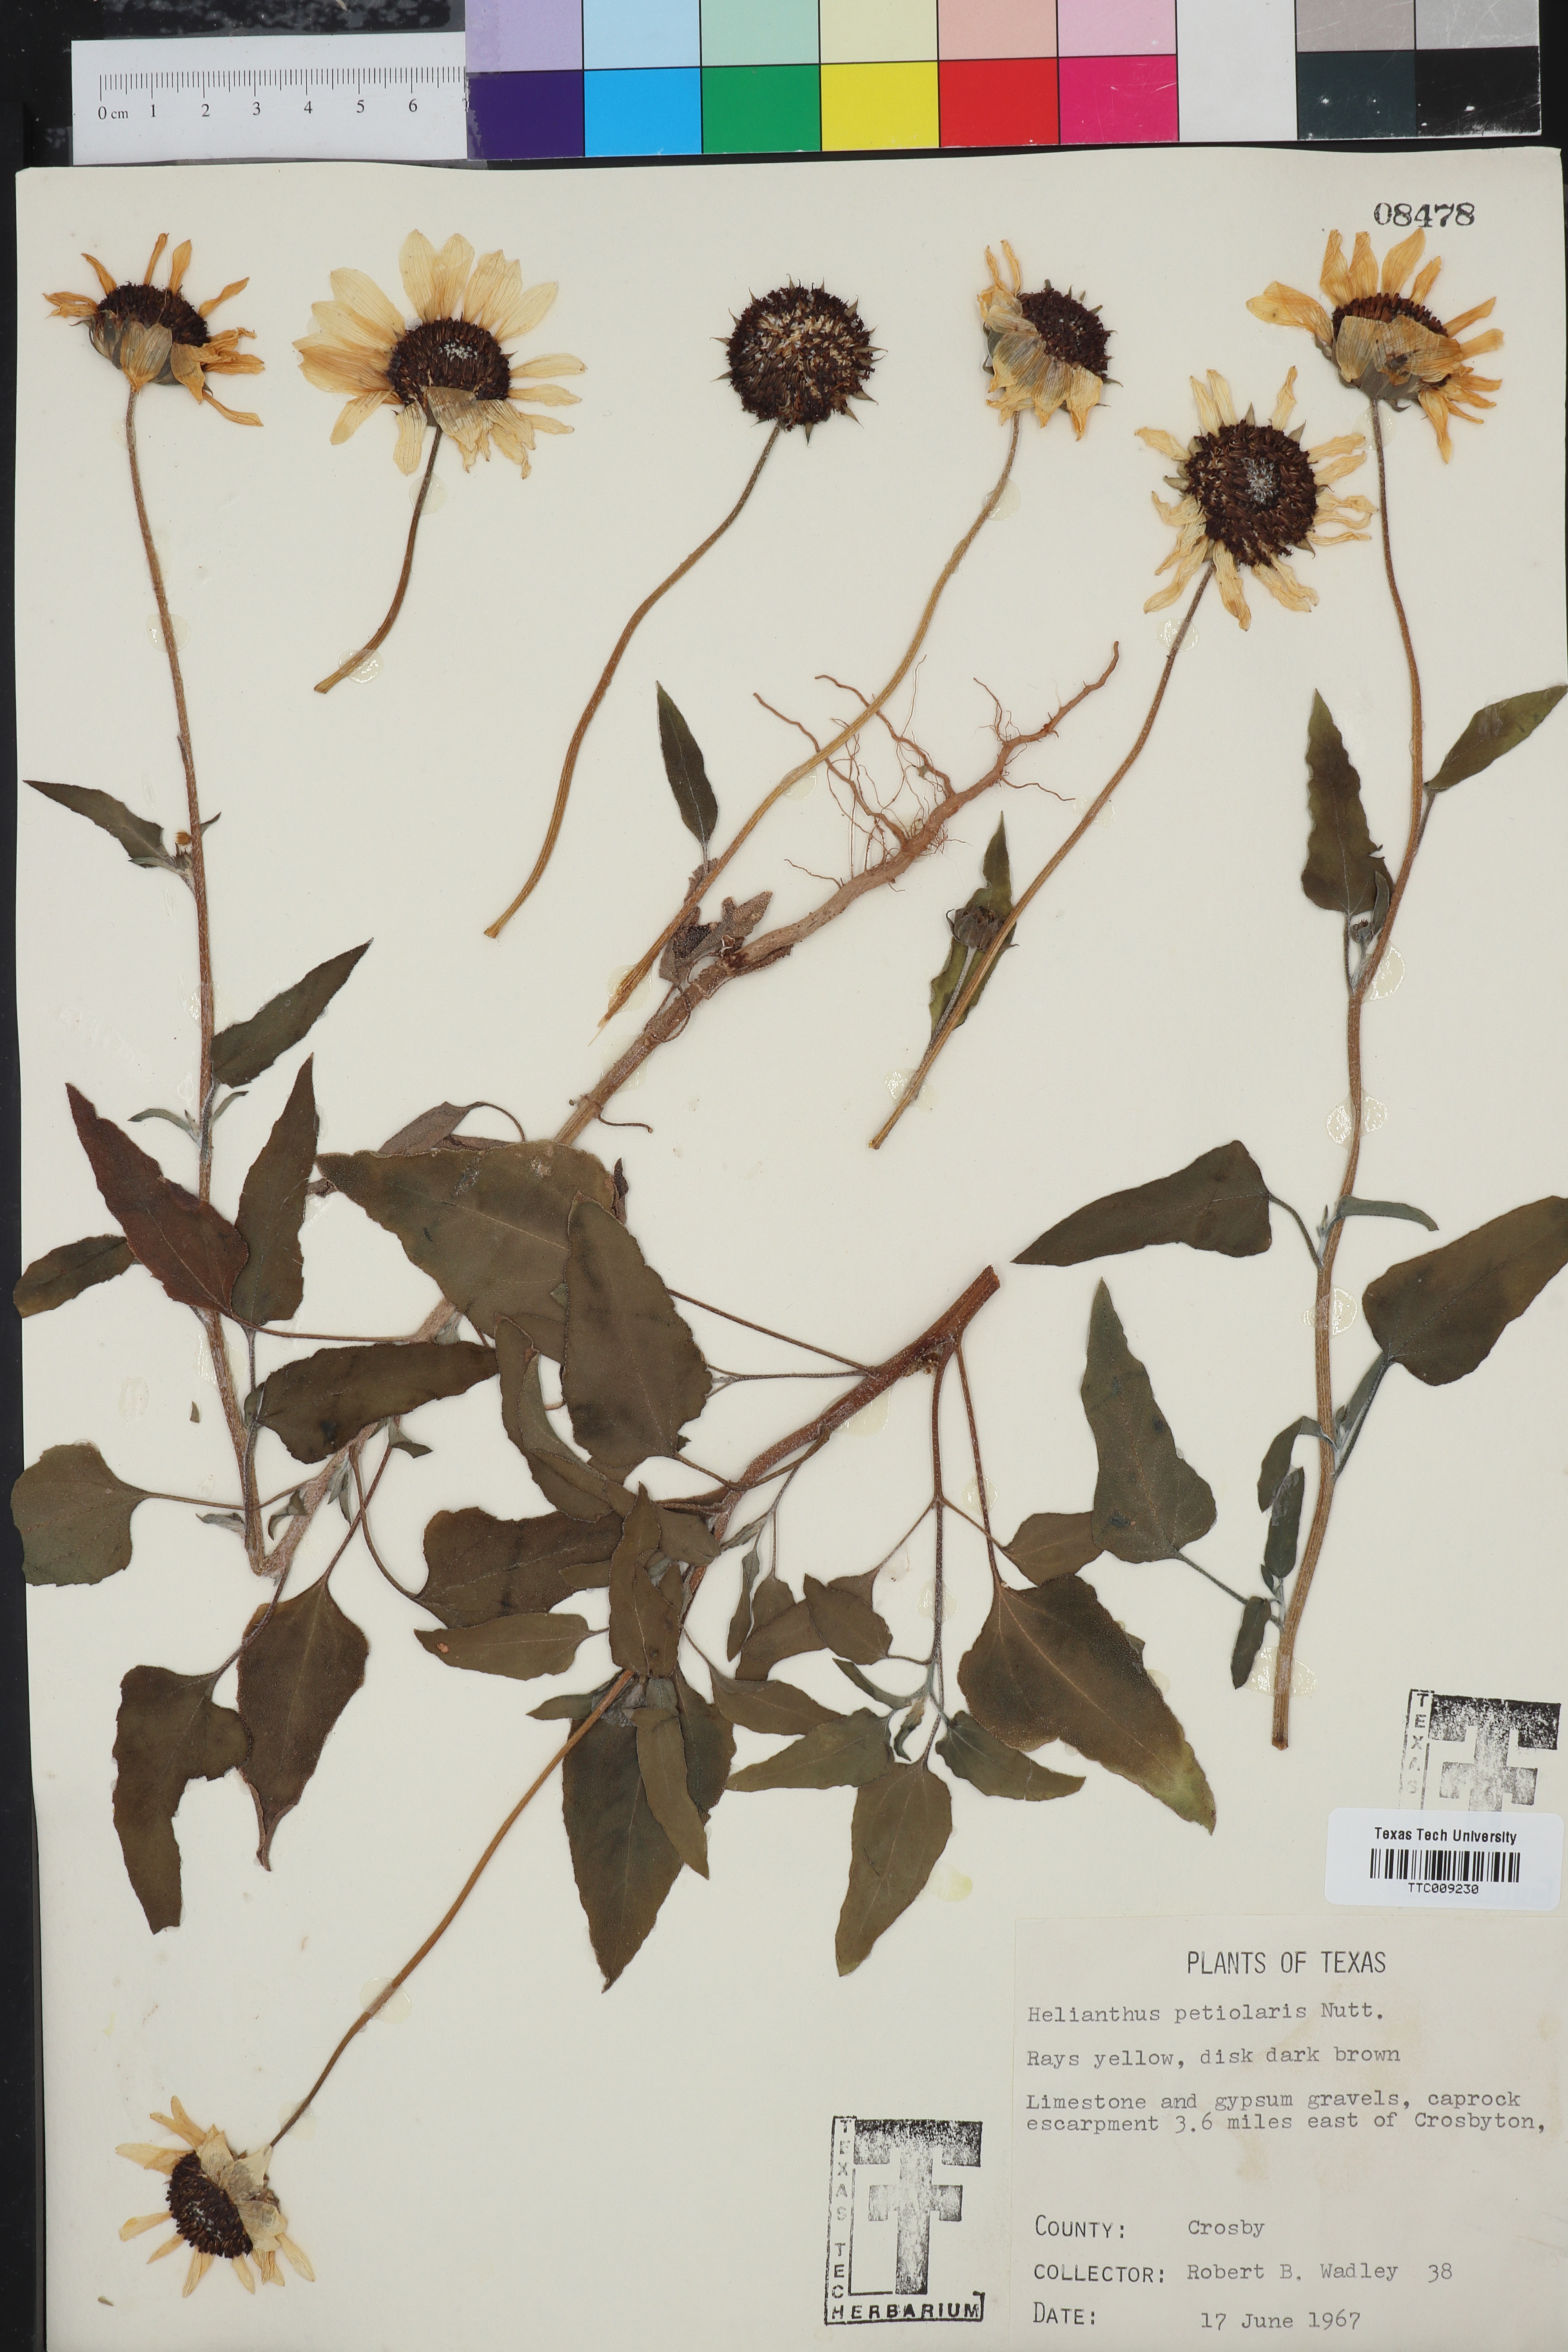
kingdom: Plantae
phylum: Tracheophyta
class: Magnoliopsida
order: Asterales
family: Asteraceae
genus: Helianthus
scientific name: Helianthus petiolaris
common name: Lesser sunflower
